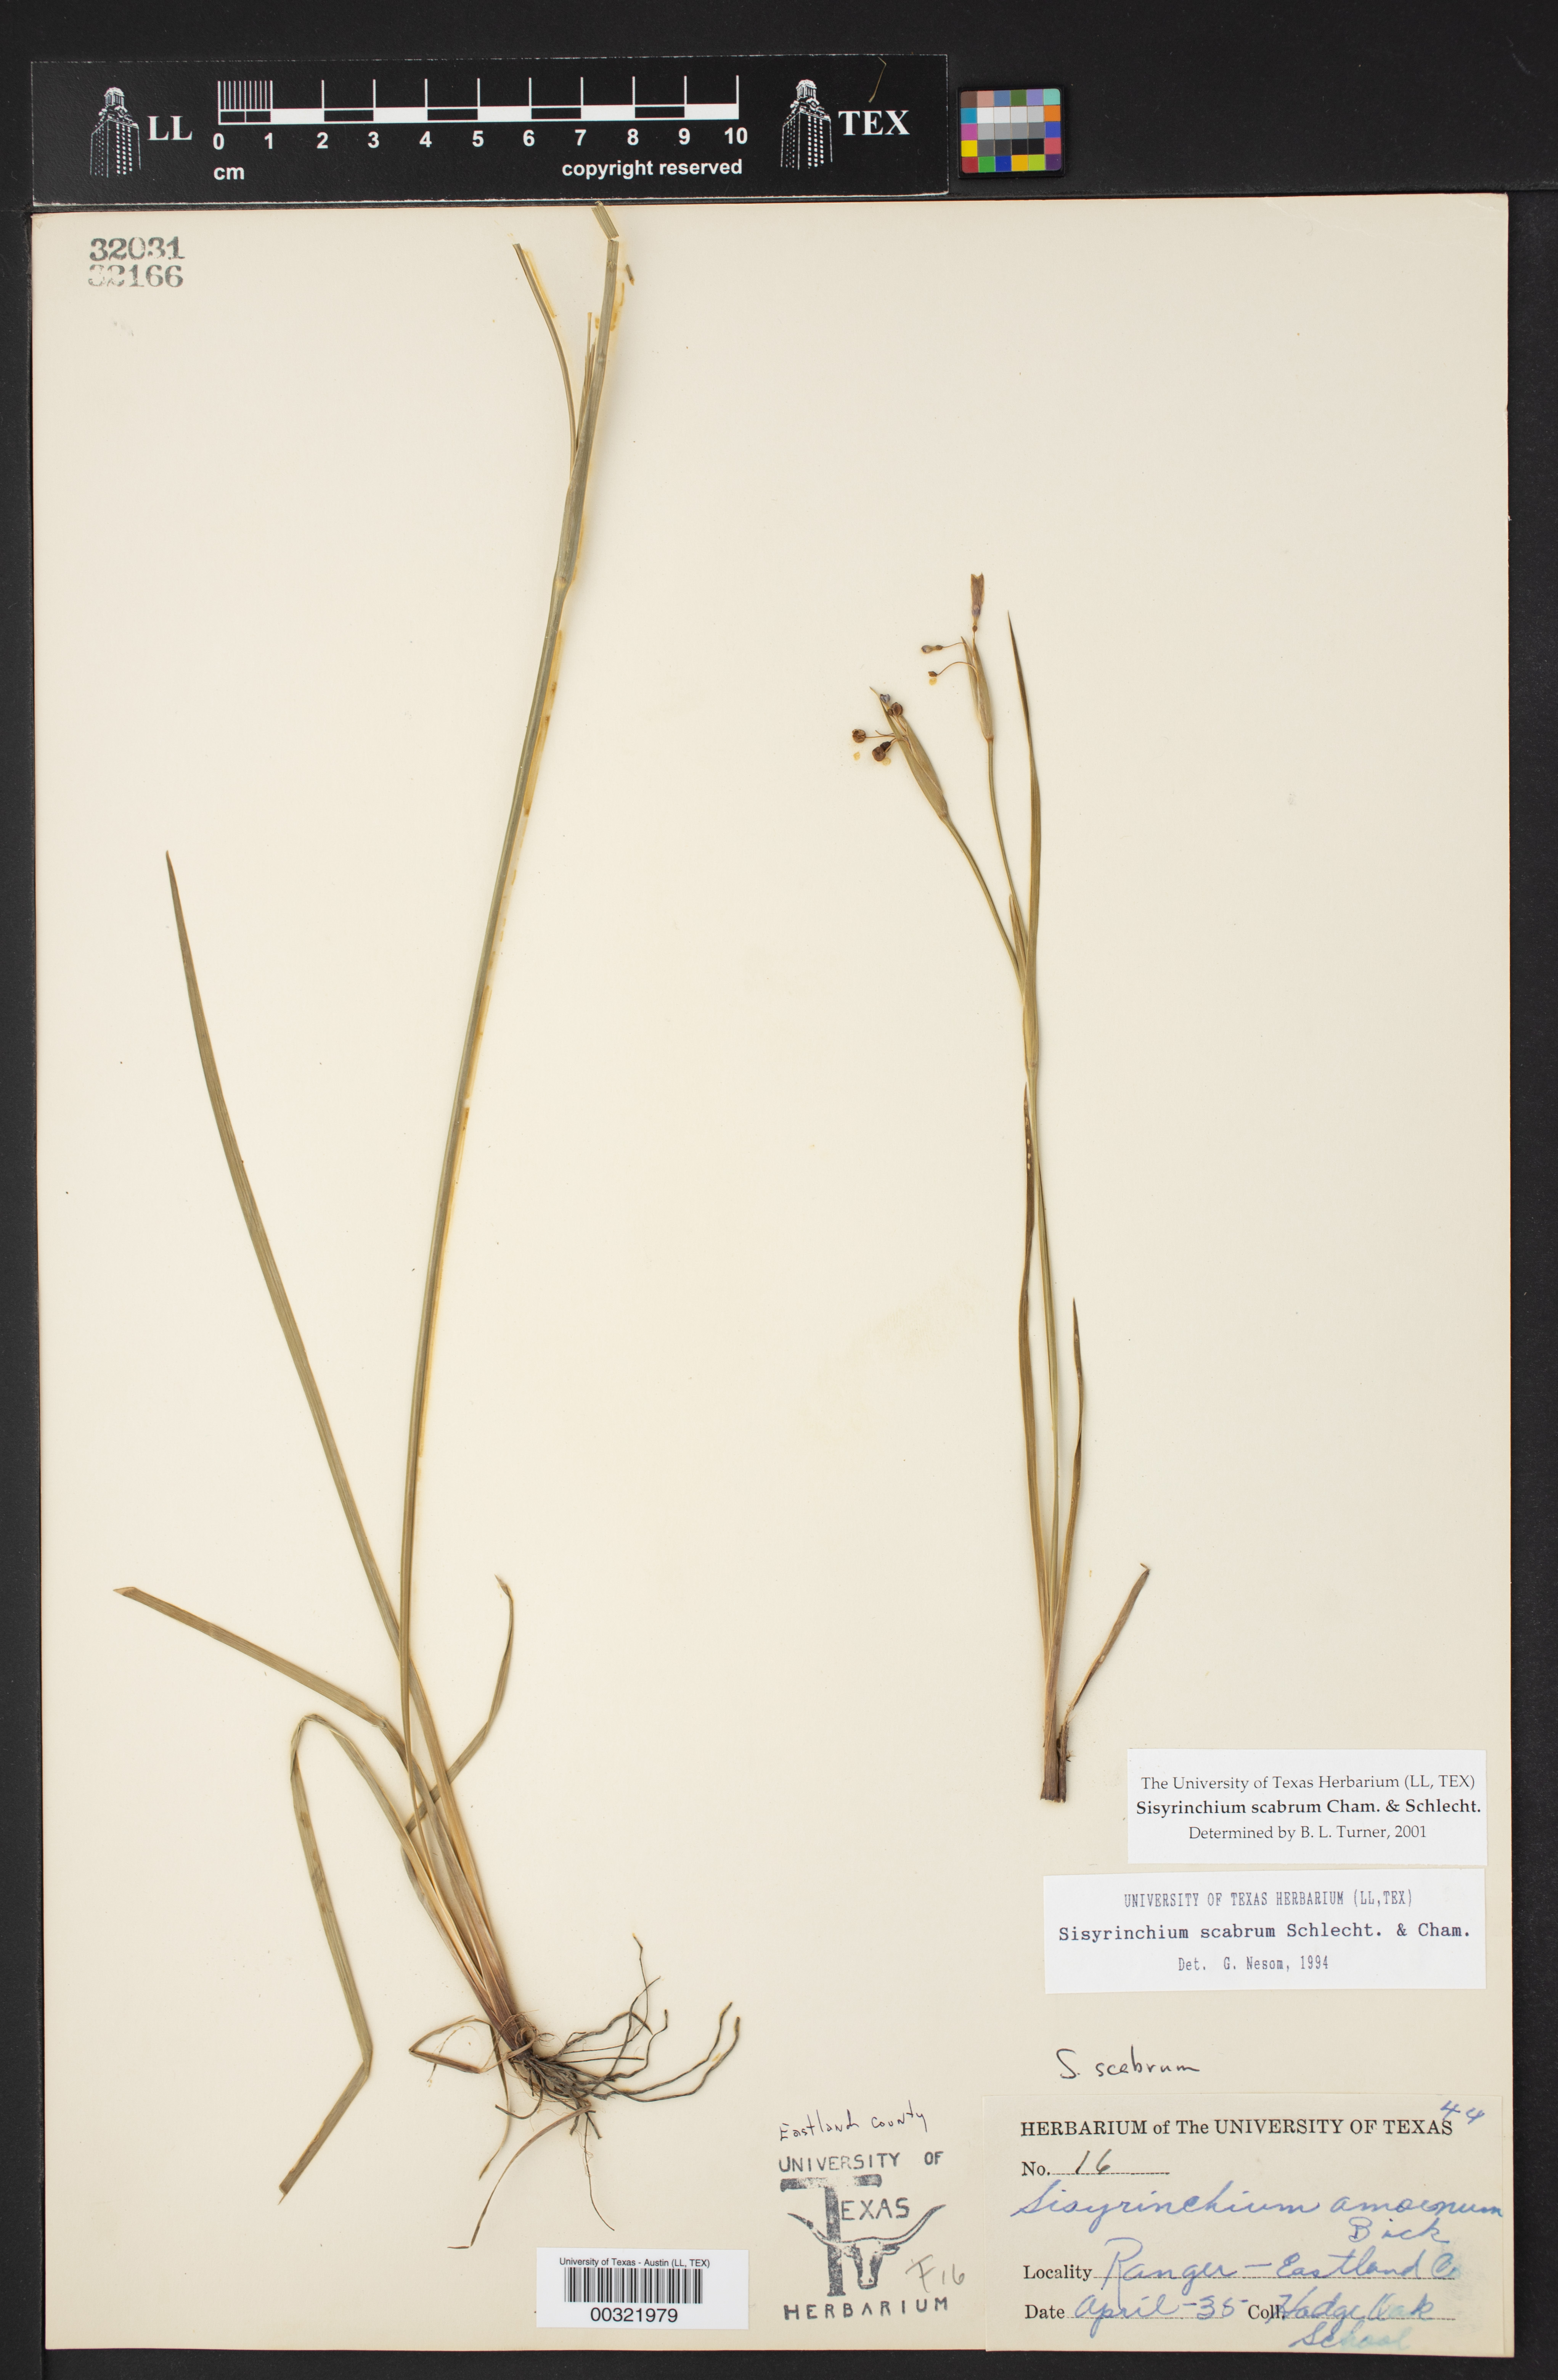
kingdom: Plantae
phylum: Tracheophyta
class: Liliopsida
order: Asparagales
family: Iridaceae
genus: Sisyrinchium
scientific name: Sisyrinchium scabrum
